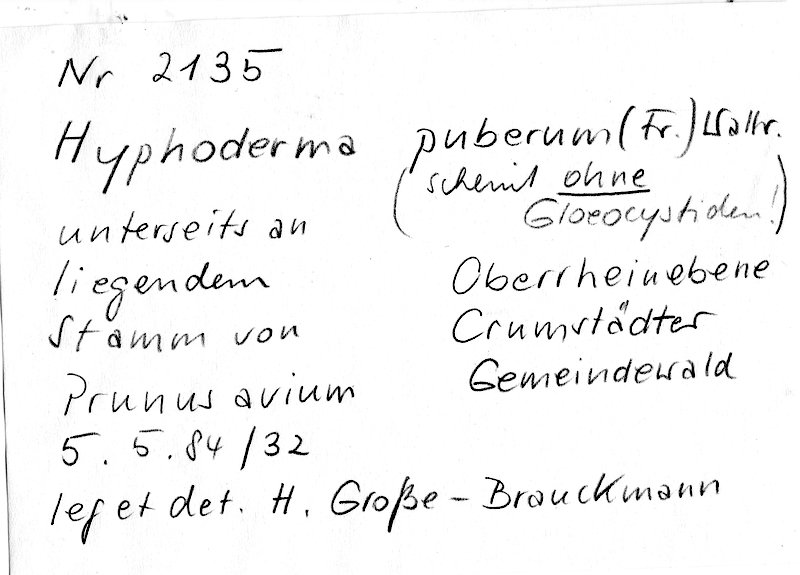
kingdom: Plantae
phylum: Tracheophyta
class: Magnoliopsida
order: Rosales
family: Rosaceae
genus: Prunus
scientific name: Prunus avium
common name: Sweet cherry
